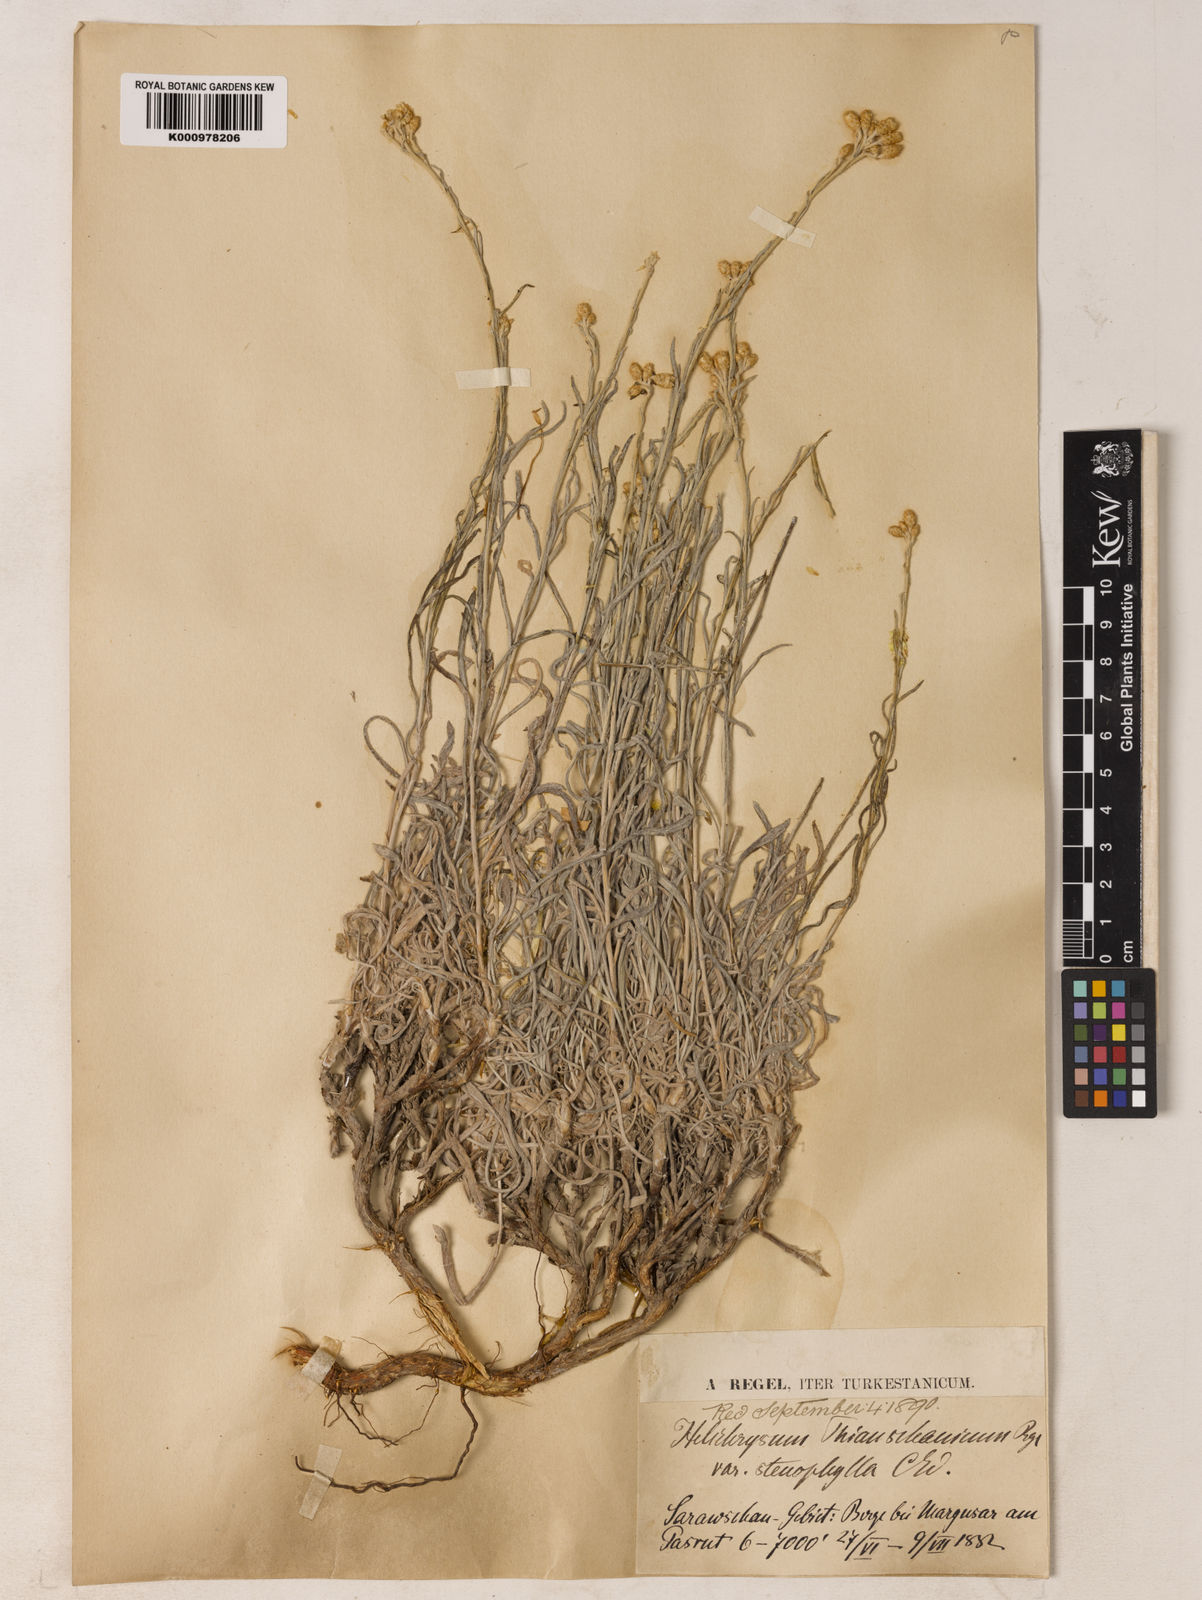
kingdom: Plantae
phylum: Tracheophyta
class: Magnoliopsida
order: Asterales
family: Asteraceae
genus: Helichrysum
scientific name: Helichrysum thianschanicum
